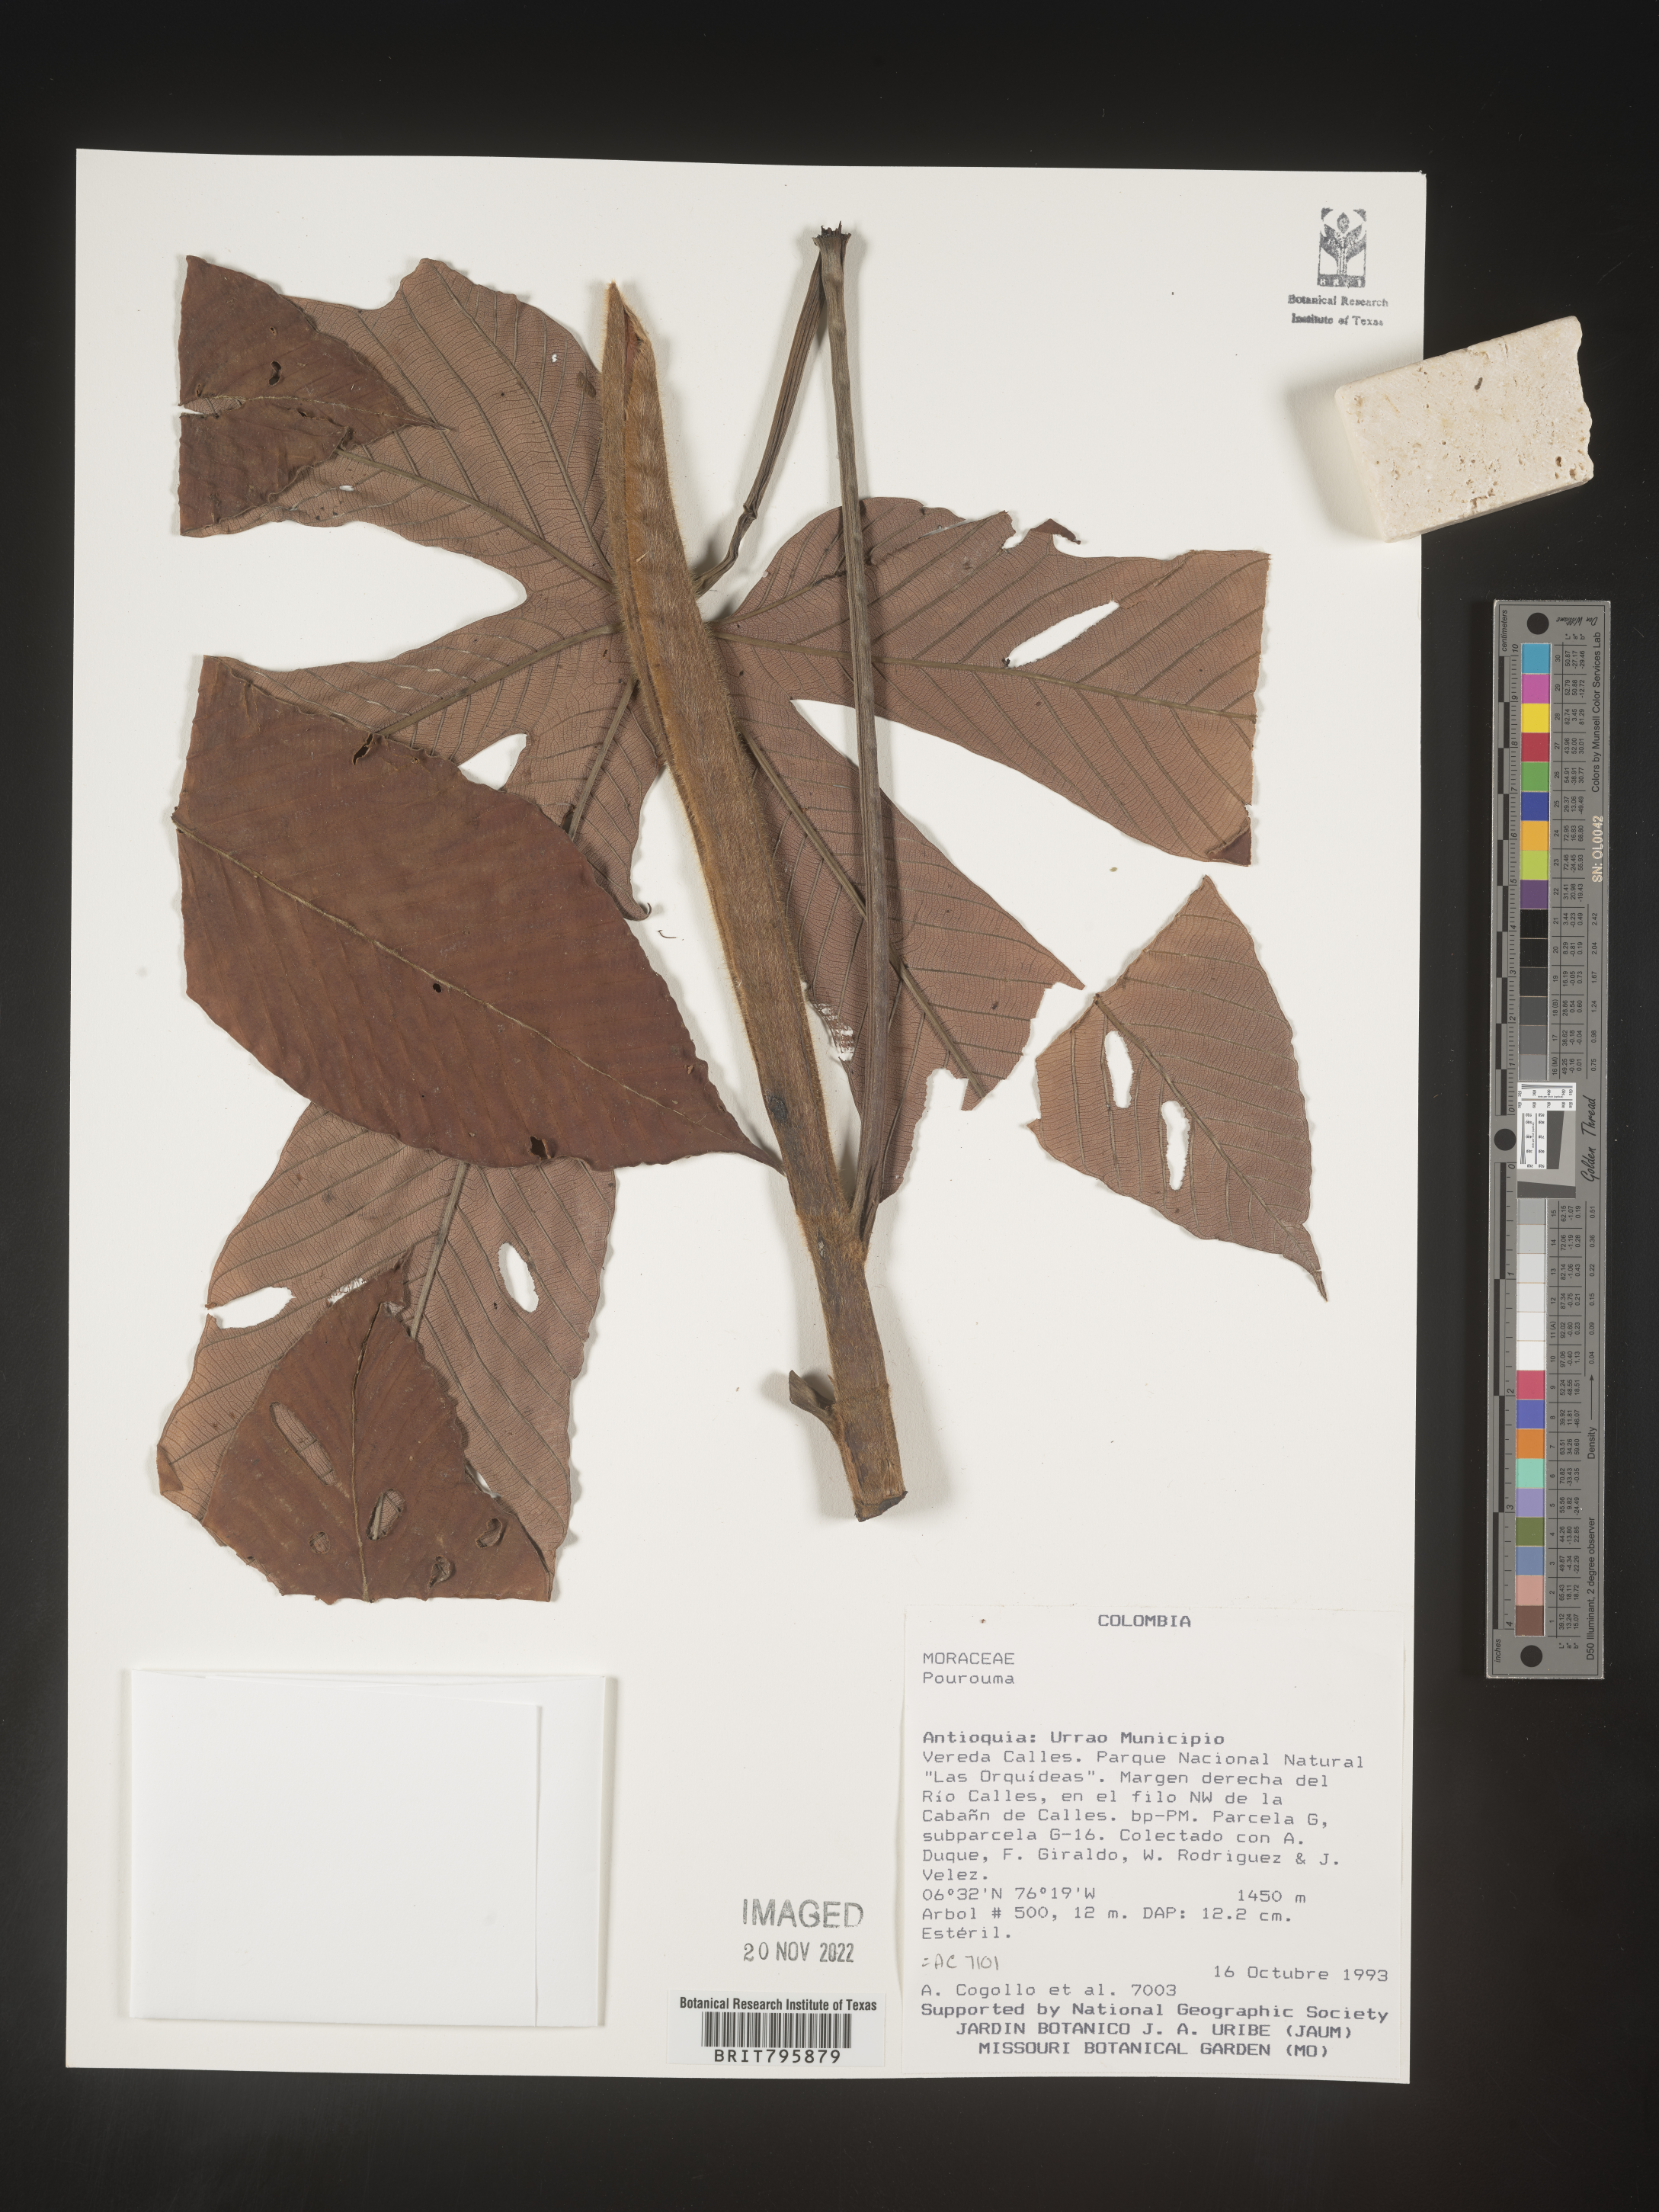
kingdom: Plantae
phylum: Tracheophyta
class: Magnoliopsida
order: Rosales
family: Urticaceae
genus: Pourouma
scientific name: Pourouma
